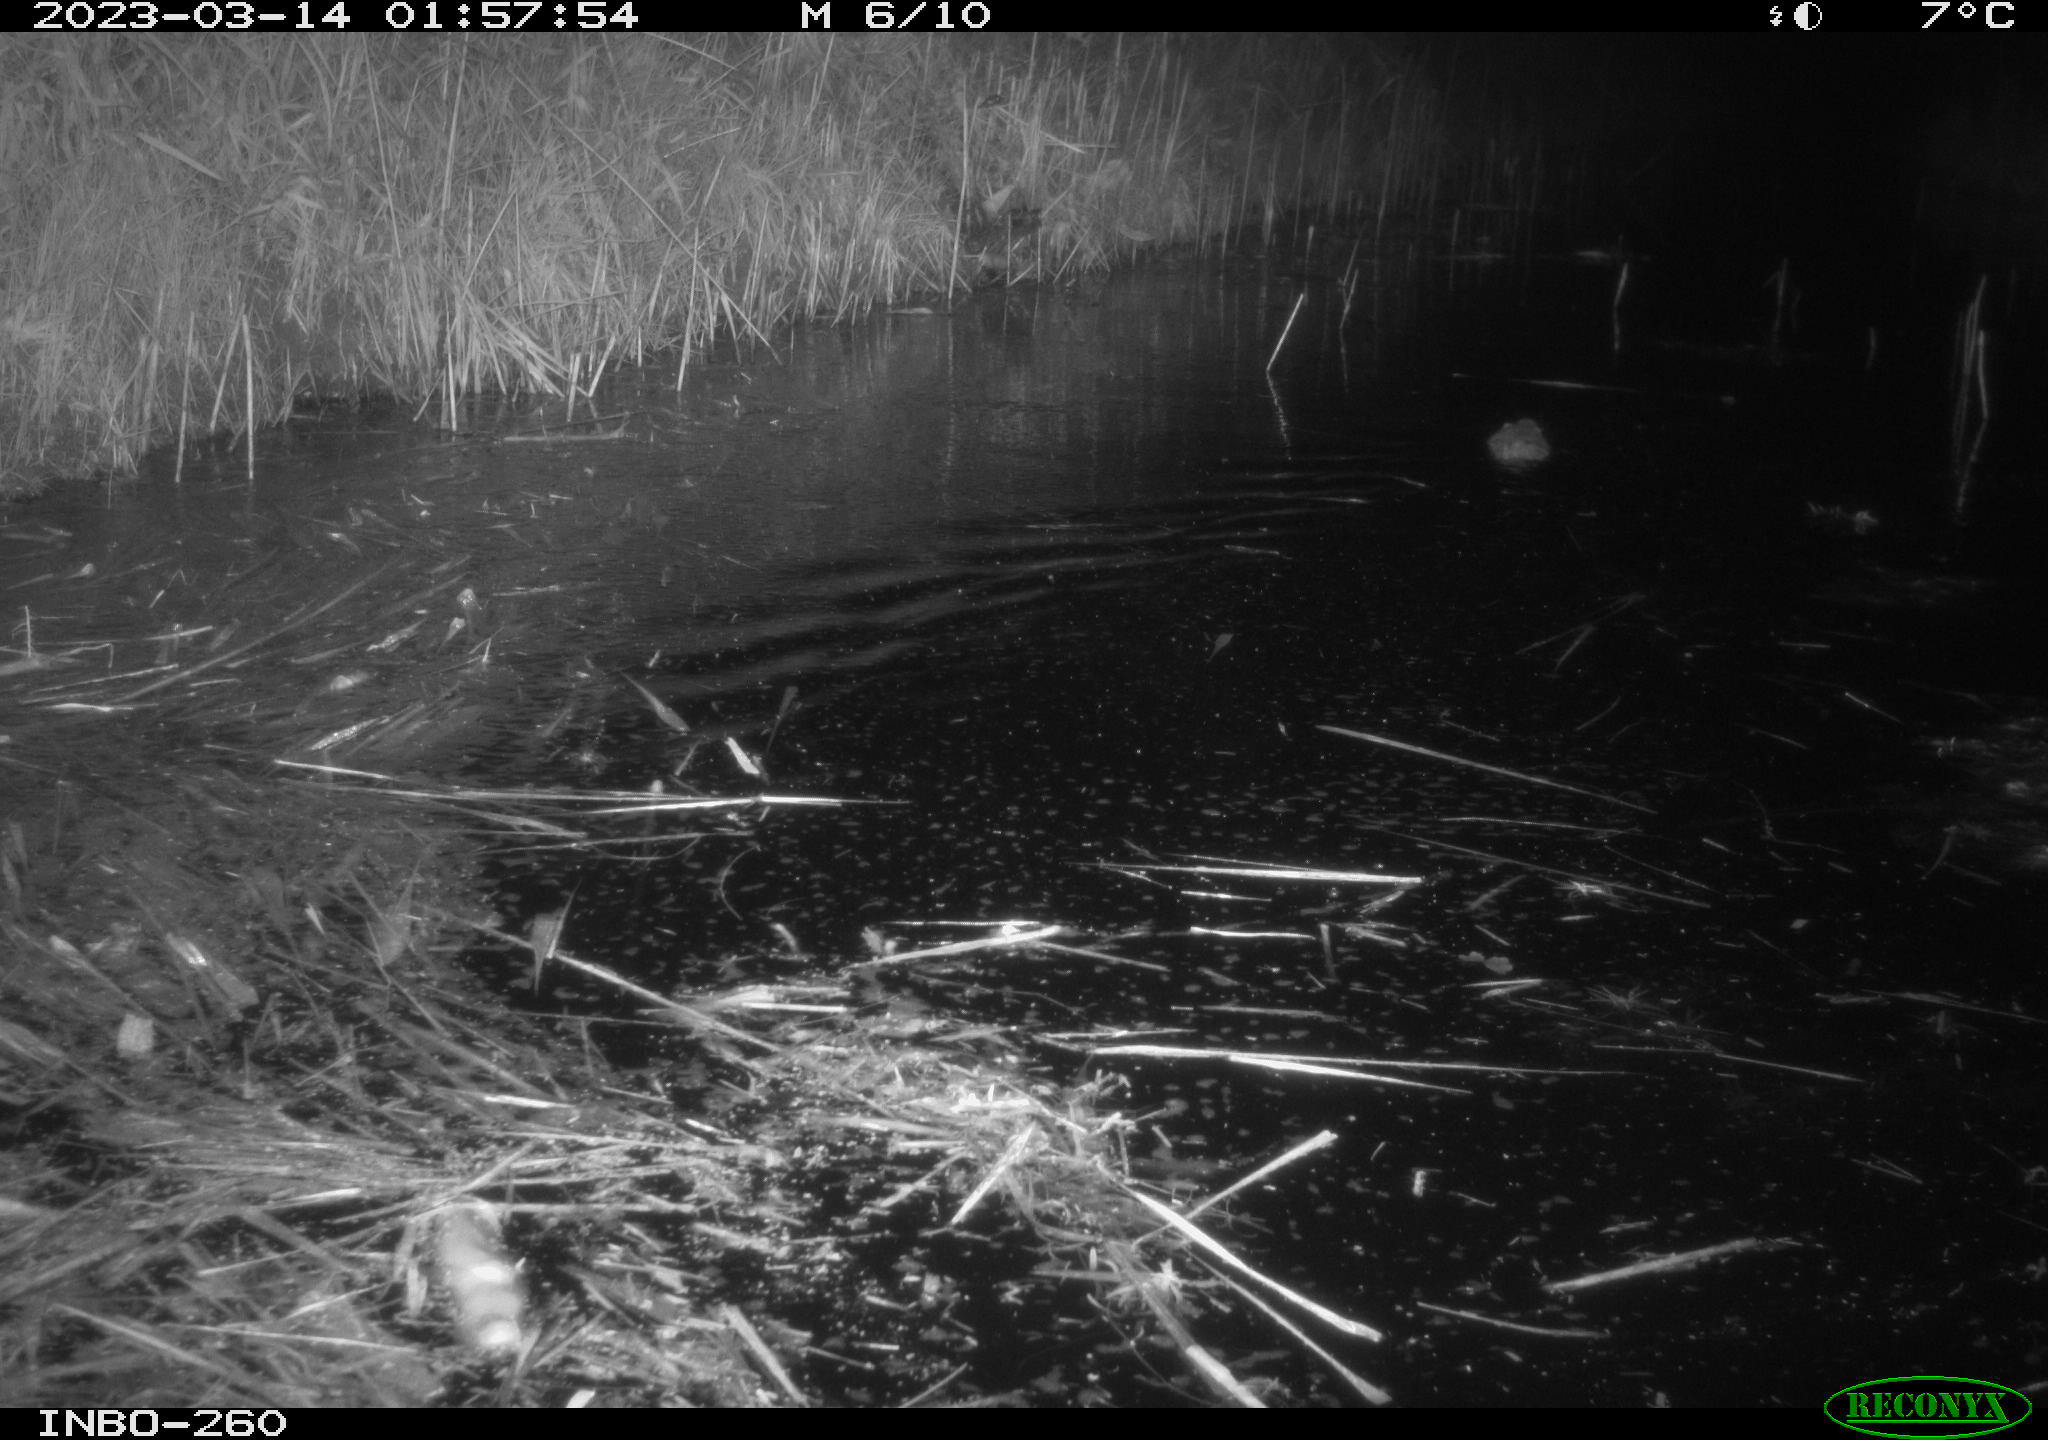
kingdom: Animalia
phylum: Chordata
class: Mammalia
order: Rodentia
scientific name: Rodentia
